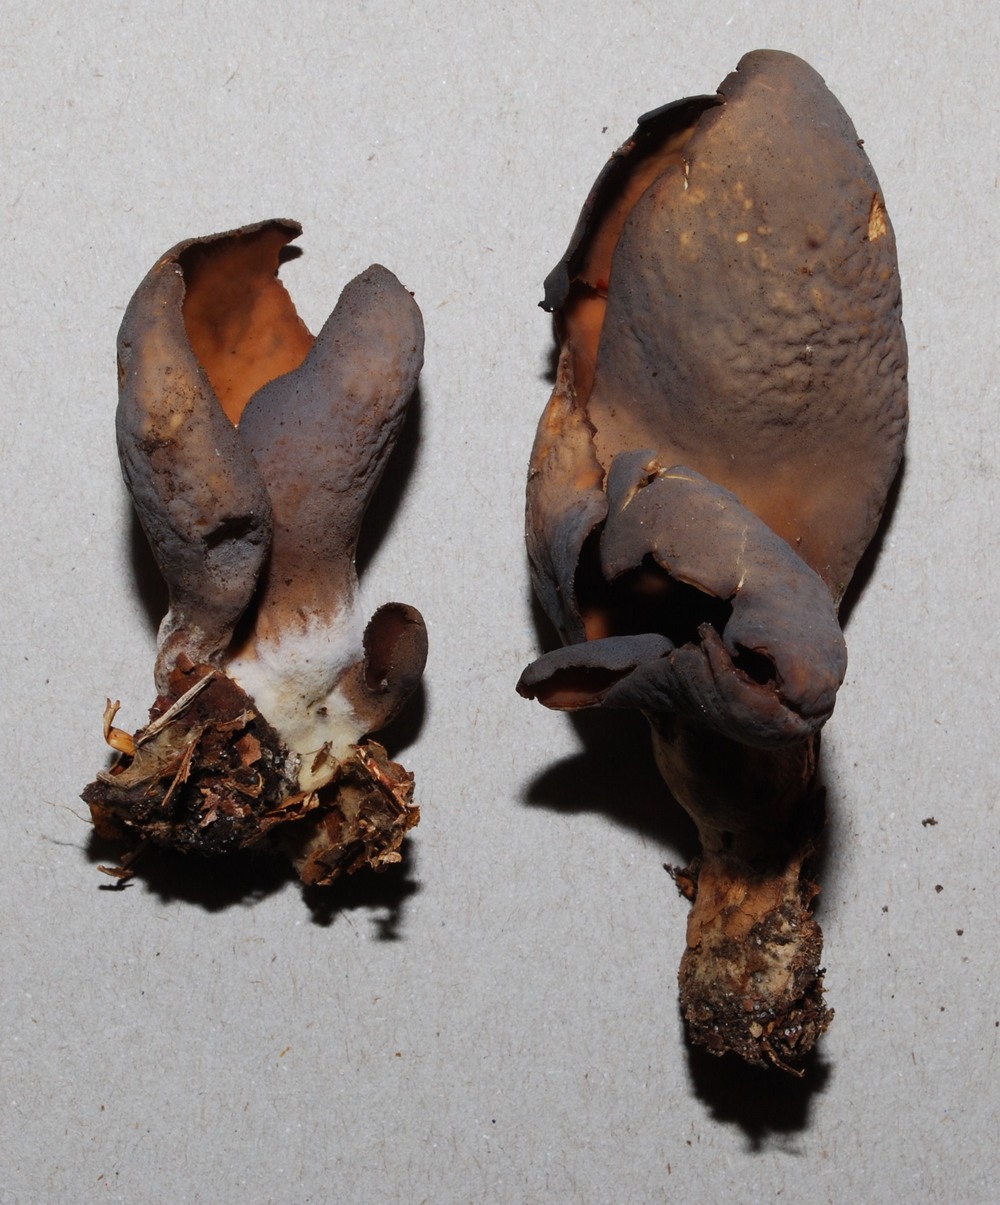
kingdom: Fungi
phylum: Ascomycota
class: Pezizomycetes
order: Pezizales
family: Otideaceae
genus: Otidea
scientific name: Otidea bufonia
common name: brun ørebæger
